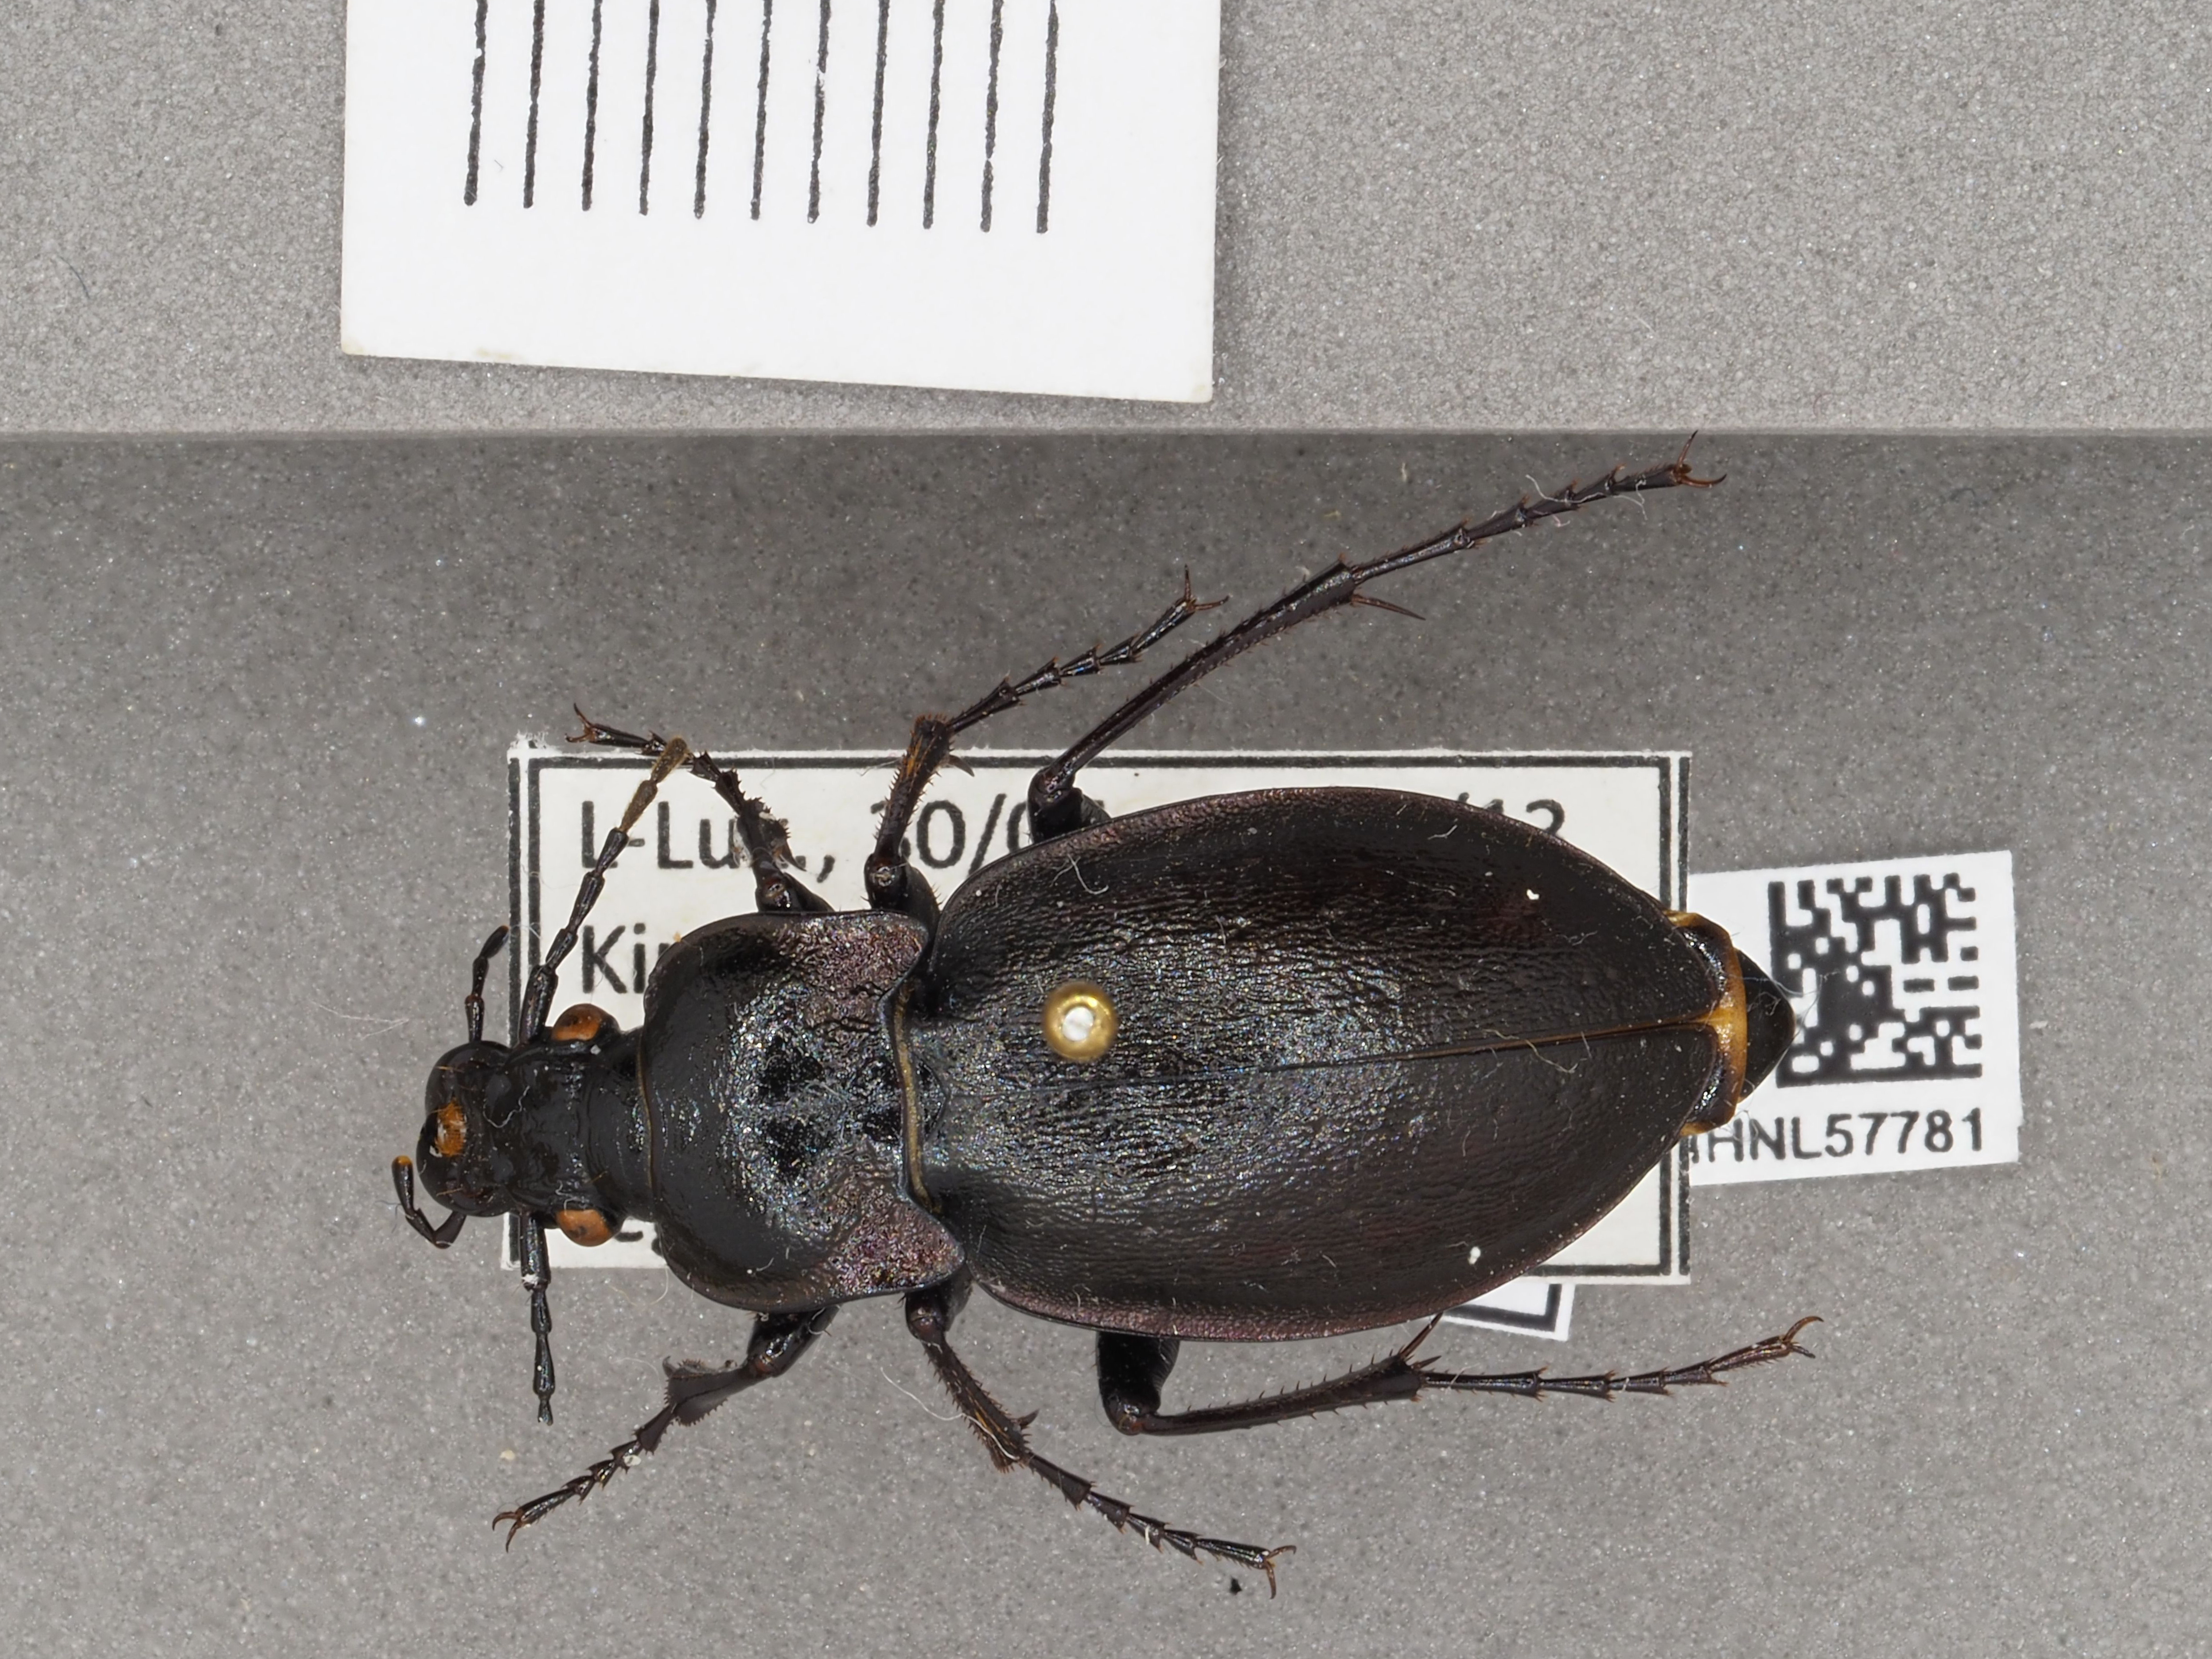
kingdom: Animalia
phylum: Arthropoda
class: Insecta
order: Coleoptera
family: Carabidae
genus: Carabus
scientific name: Carabus nemoralis
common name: European ground beetle
